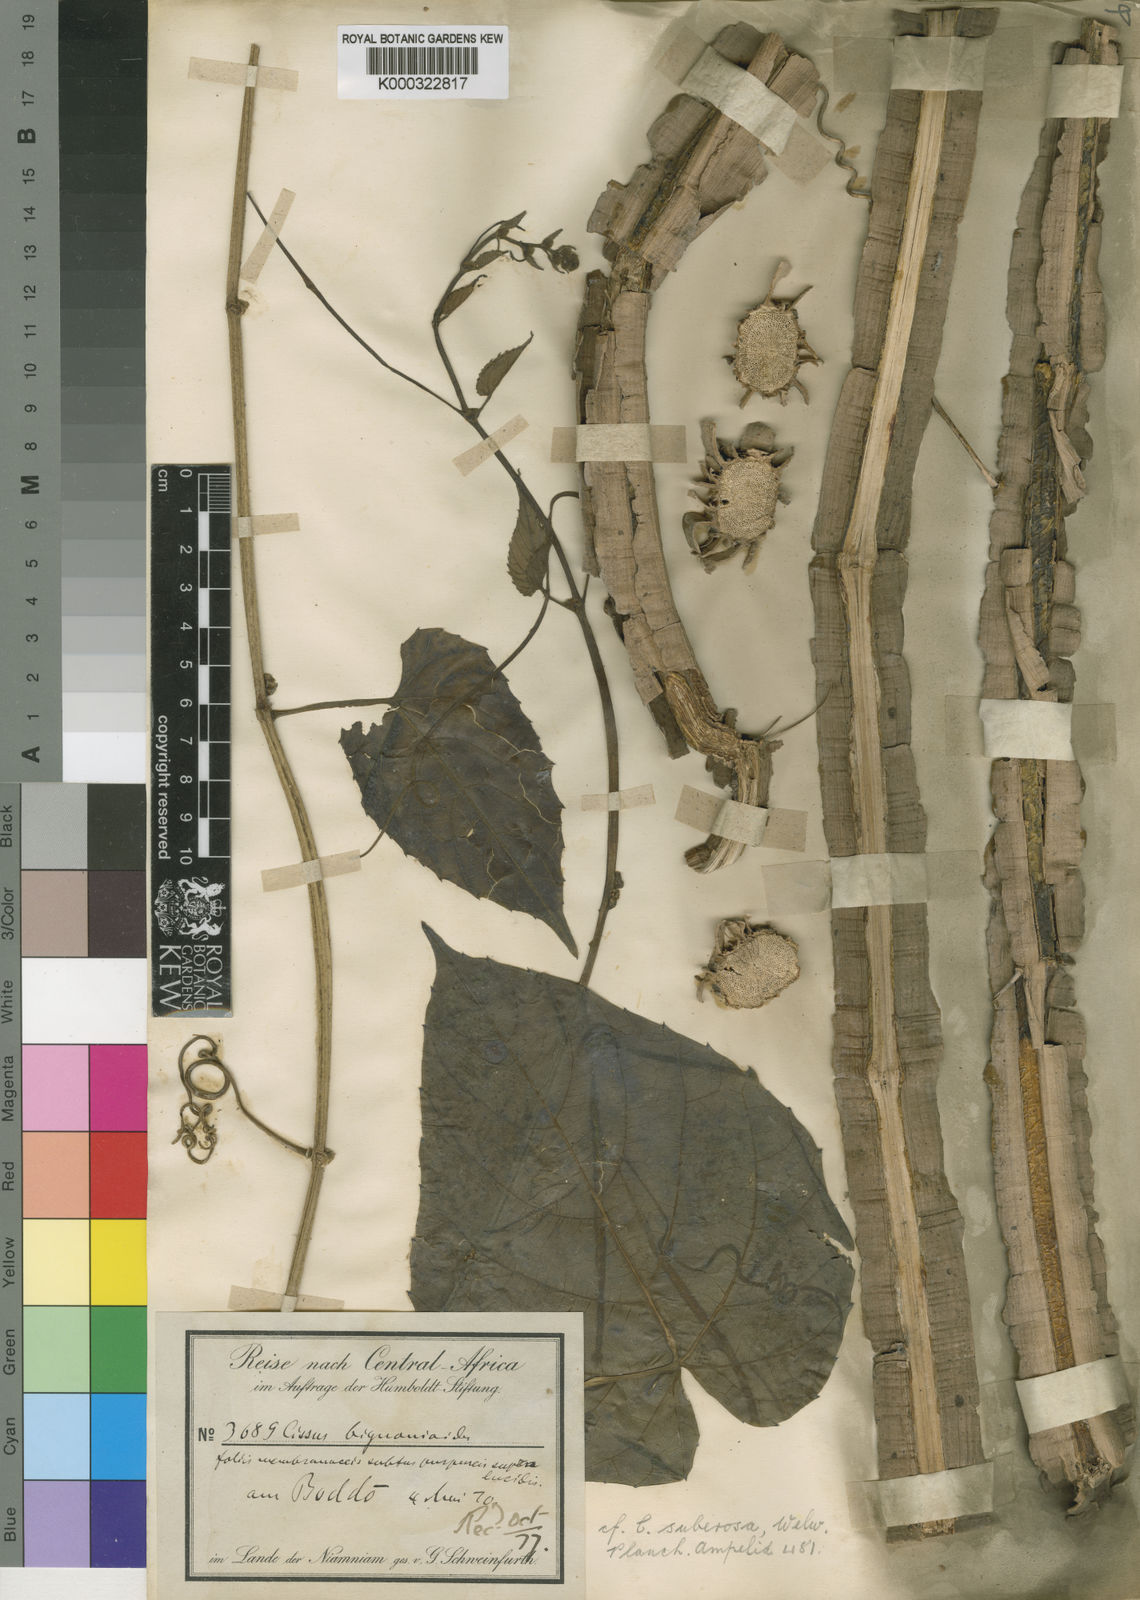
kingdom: Plantae
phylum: Tracheophyta
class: Magnoliopsida
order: Vitales
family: Vitaceae
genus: Cissus
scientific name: Cissus
